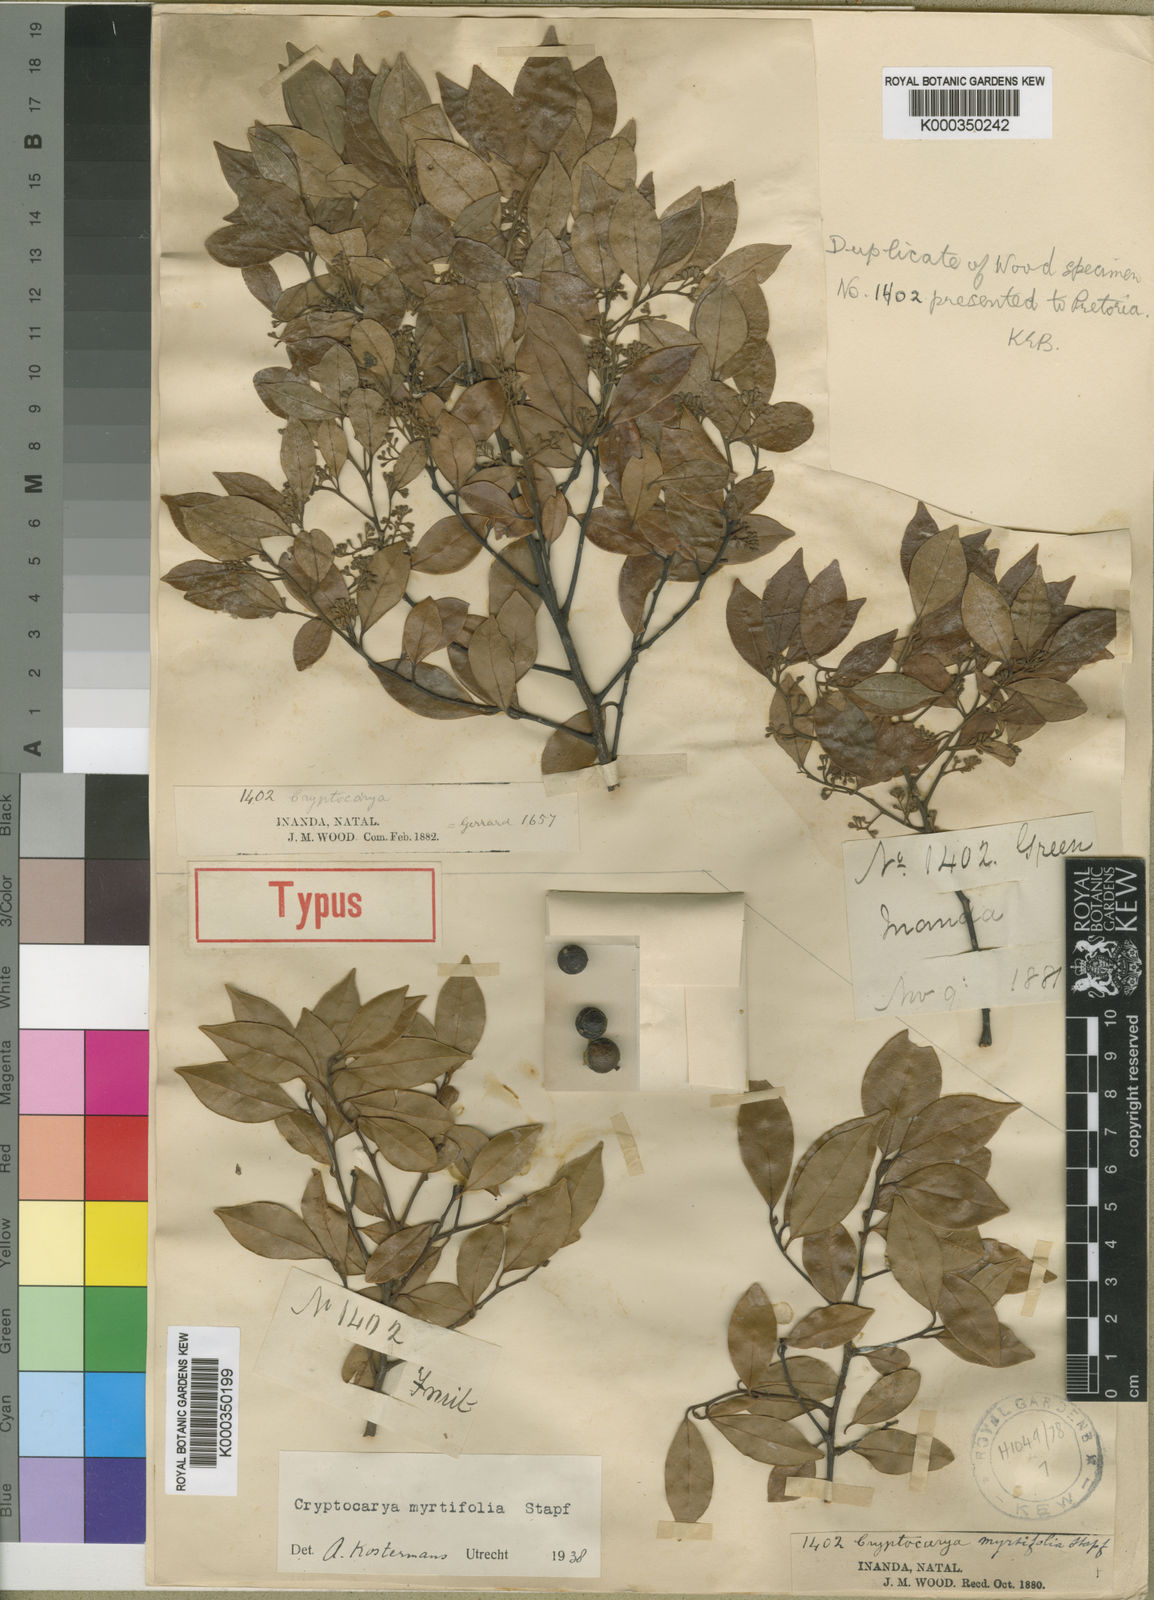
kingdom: Plantae
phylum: Tracheophyta
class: Magnoliopsida
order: Laurales
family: Lauraceae
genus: Cryptocarya
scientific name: Cryptocarya myrtifolia
